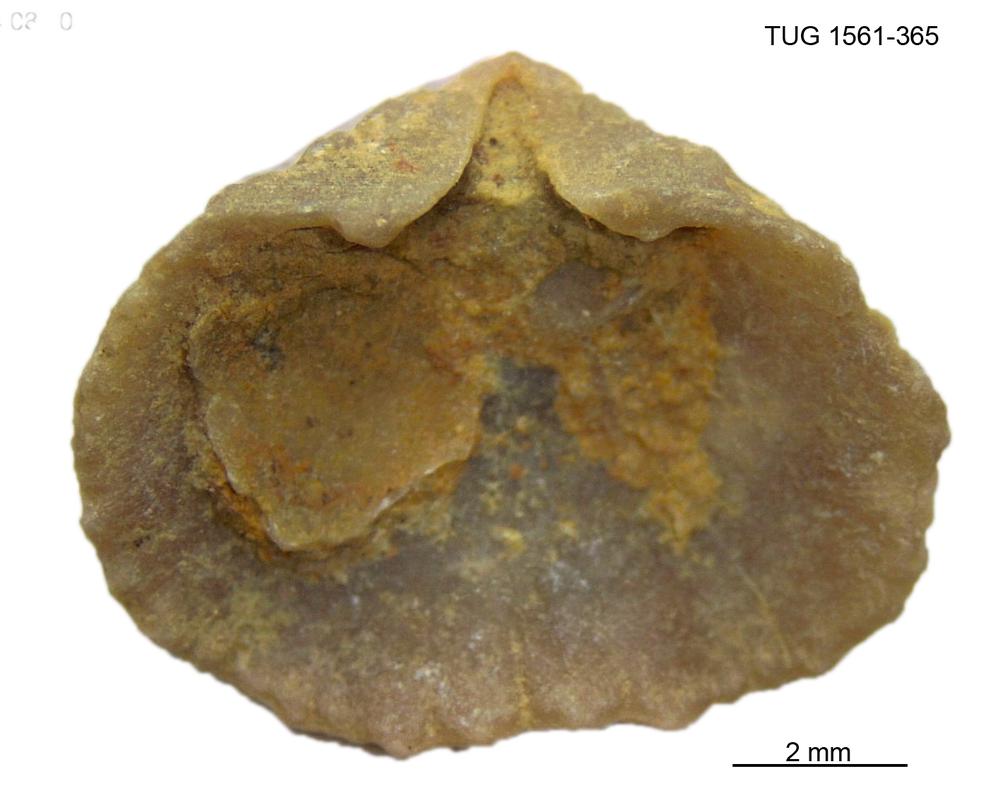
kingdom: Animalia
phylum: Brachiopoda
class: Rhynchonellata
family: Hesperorthidae
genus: Ptychopleurella
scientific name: Ptychopleurella Orthis bouchardi
